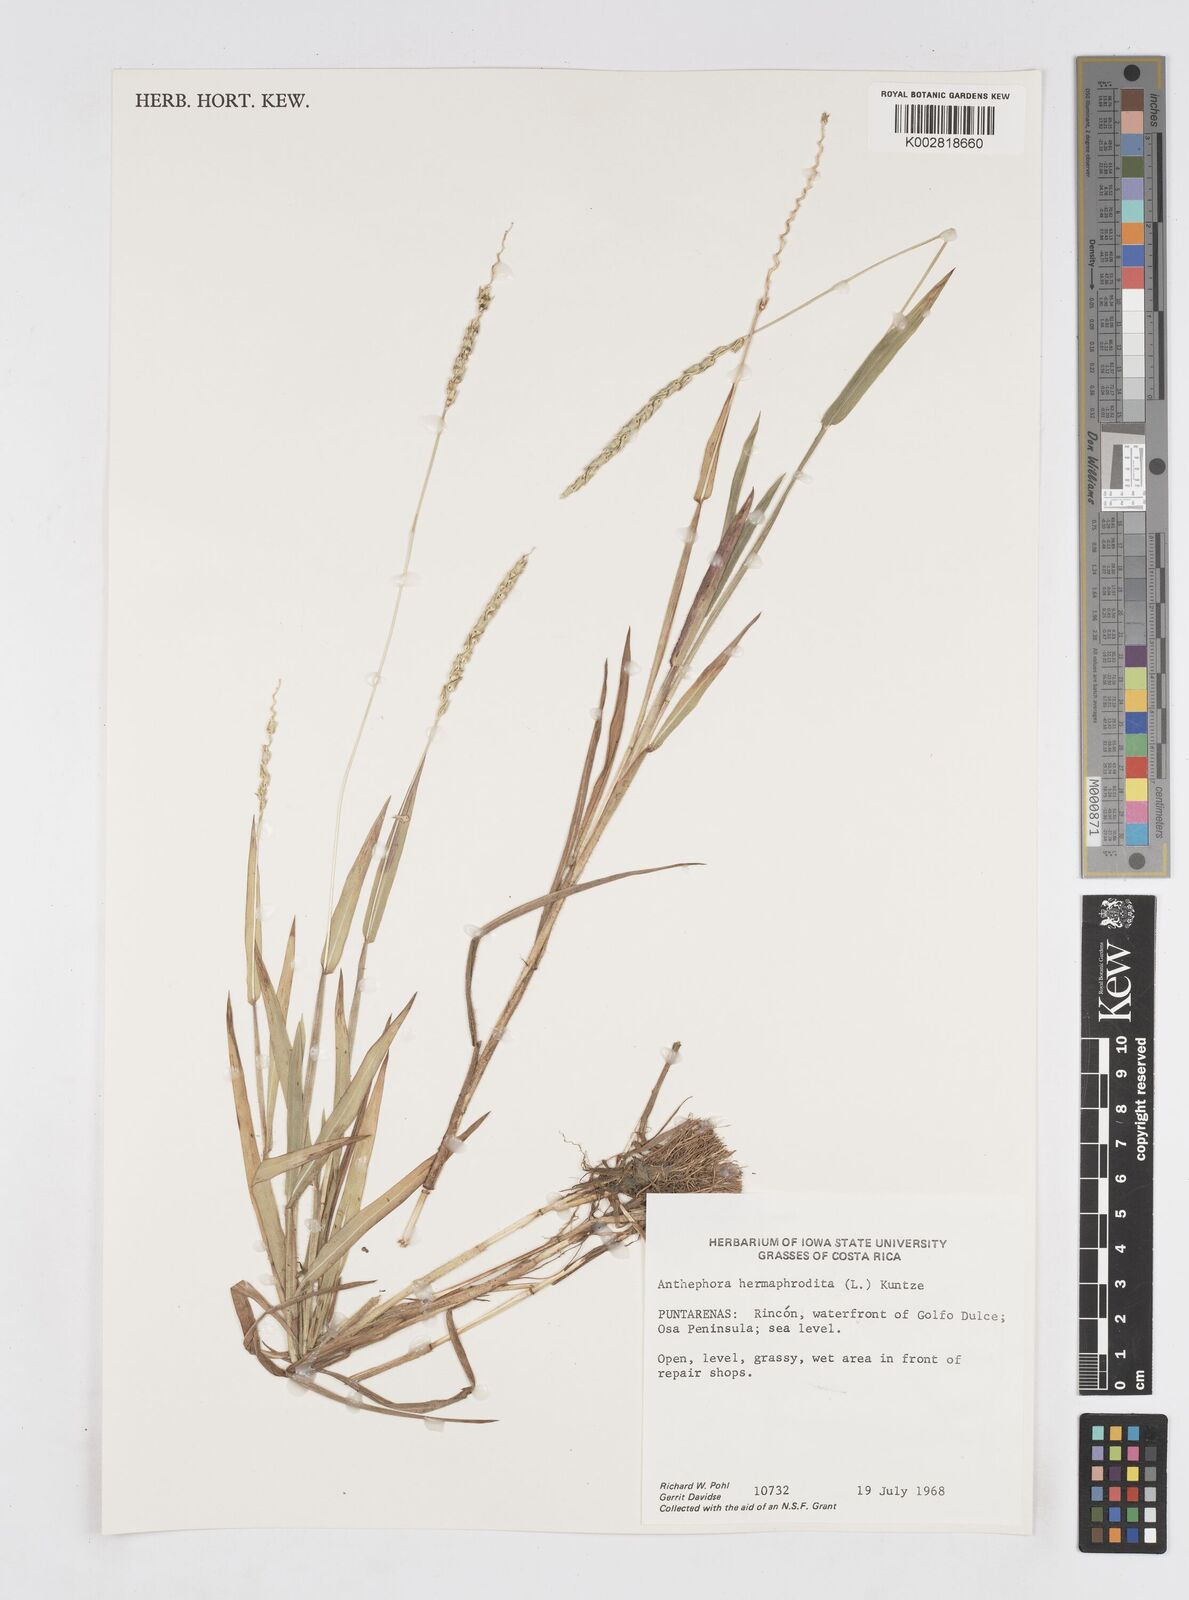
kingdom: Plantae
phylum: Tracheophyta
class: Liliopsida
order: Poales
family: Poaceae
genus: Anthephora
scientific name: Anthephora hermaphrodita
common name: Oldfield grass
